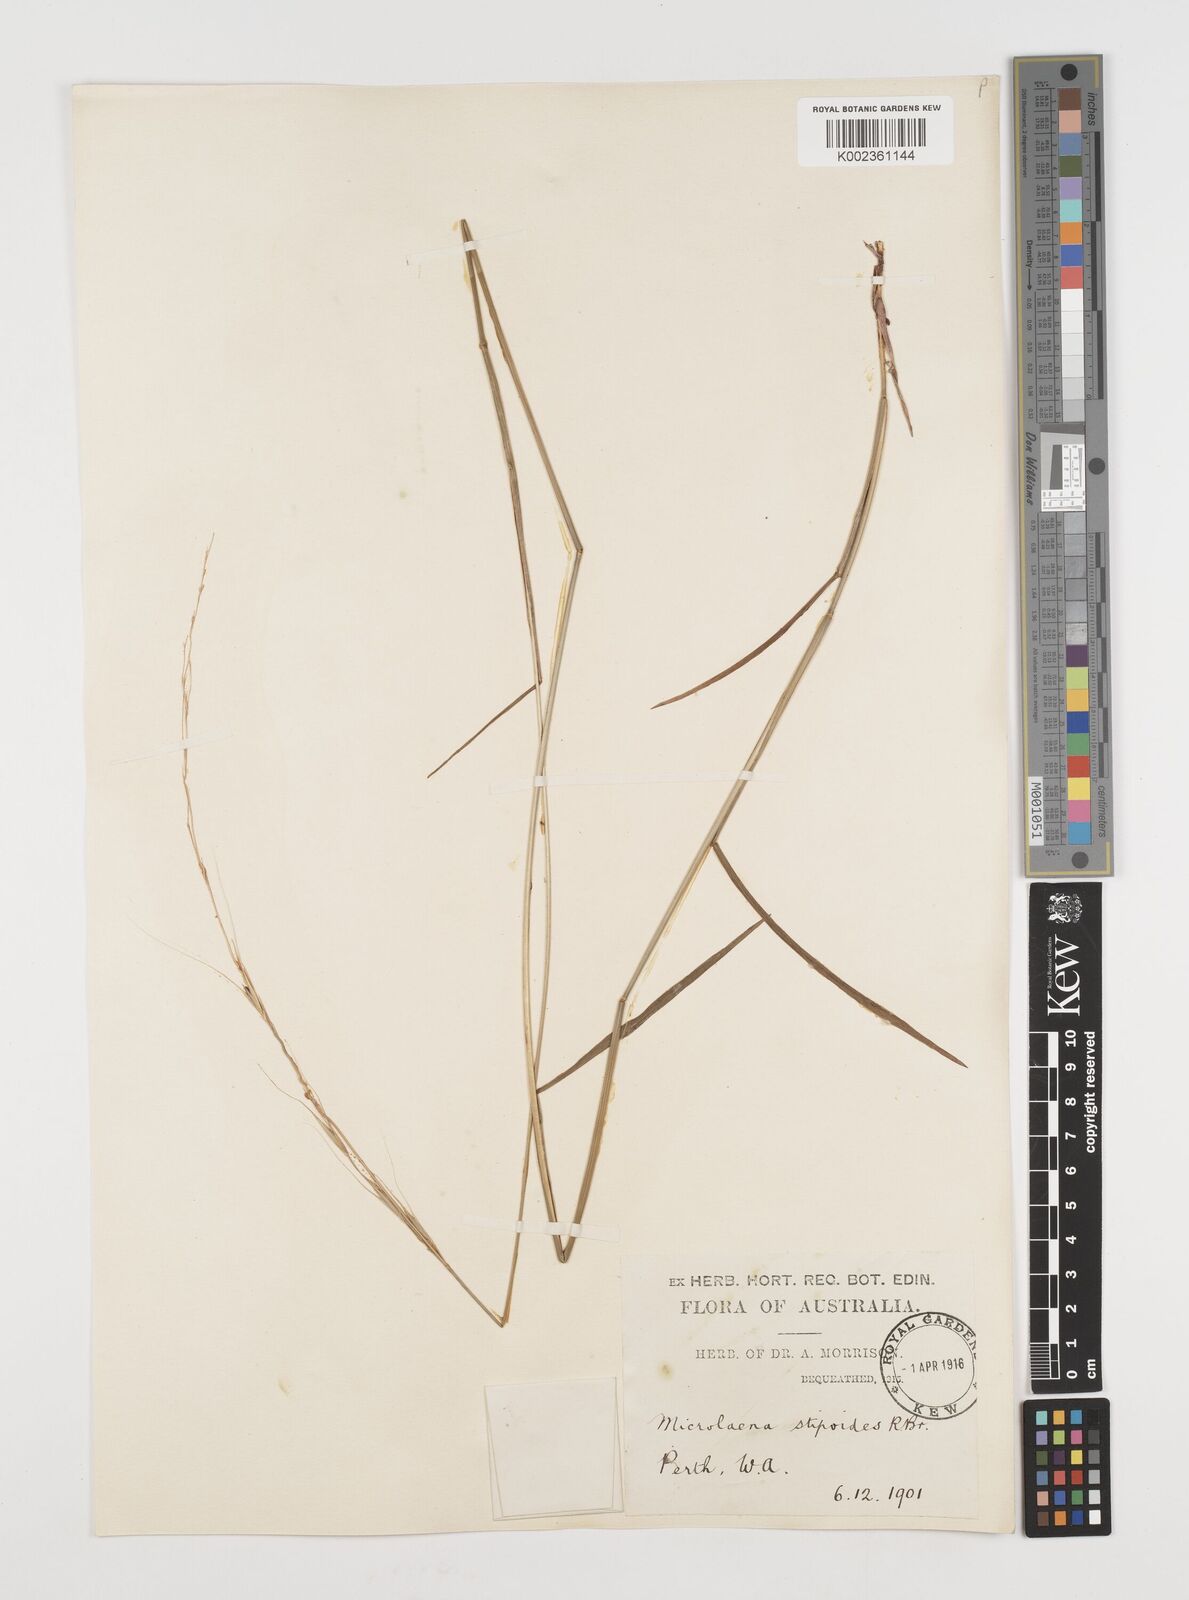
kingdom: Plantae
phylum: Tracheophyta
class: Liliopsida
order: Poales
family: Poaceae
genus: Microlaena
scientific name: Microlaena stipoides
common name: Meadow ricegrass
